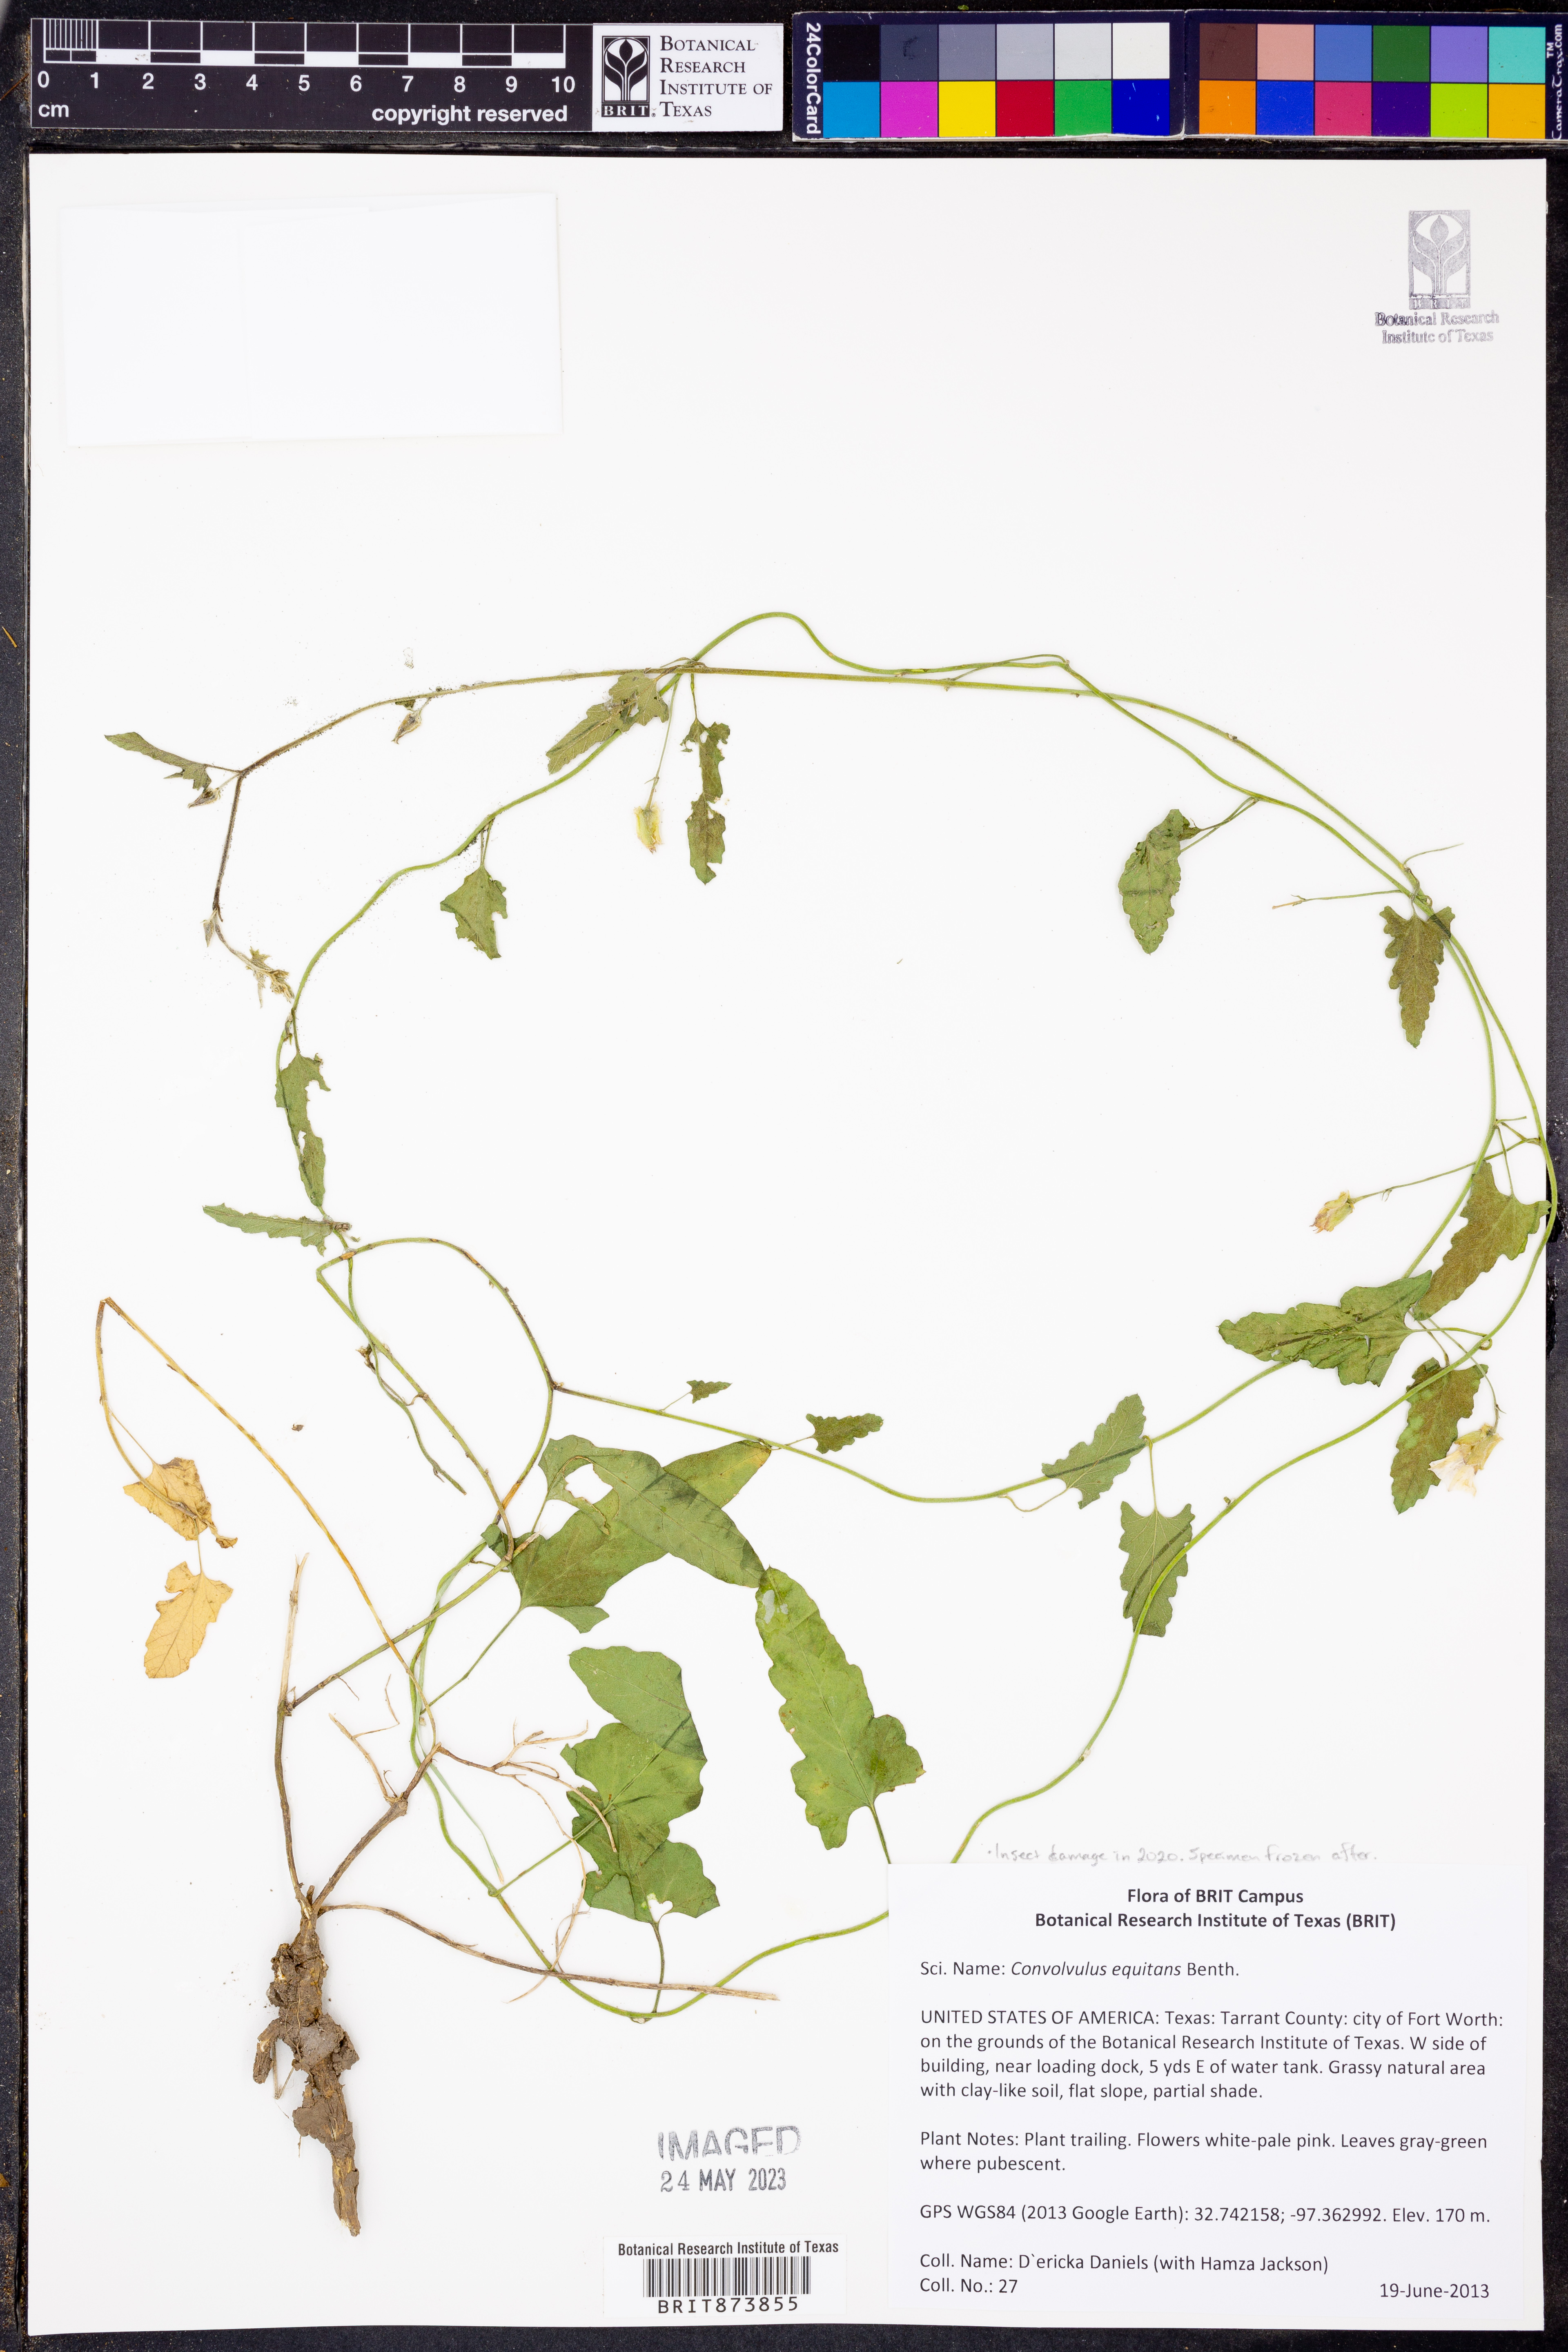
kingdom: Plantae
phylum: Tracheophyta
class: Magnoliopsida
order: Solanales
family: Convolvulaceae
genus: Convolvulus
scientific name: Convolvulus equitans
